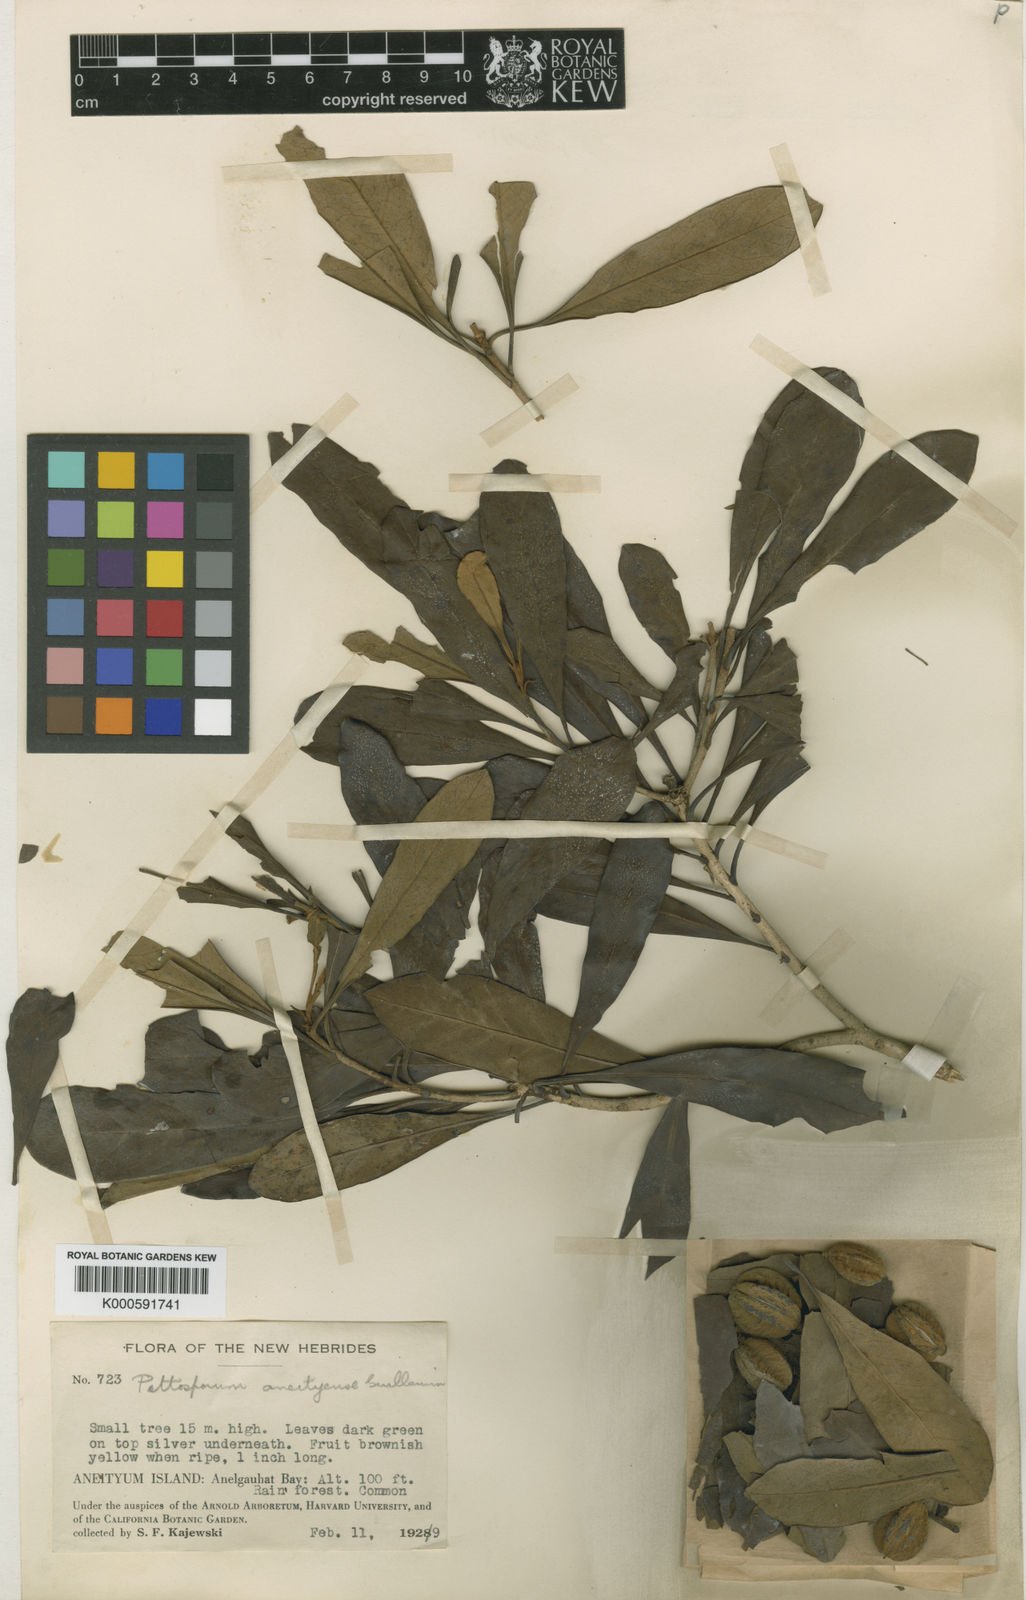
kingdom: Plantae
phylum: Tracheophyta
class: Magnoliopsida
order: Apiales
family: Pittosporaceae
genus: Pittosporum
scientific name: Pittosporum aneityense
